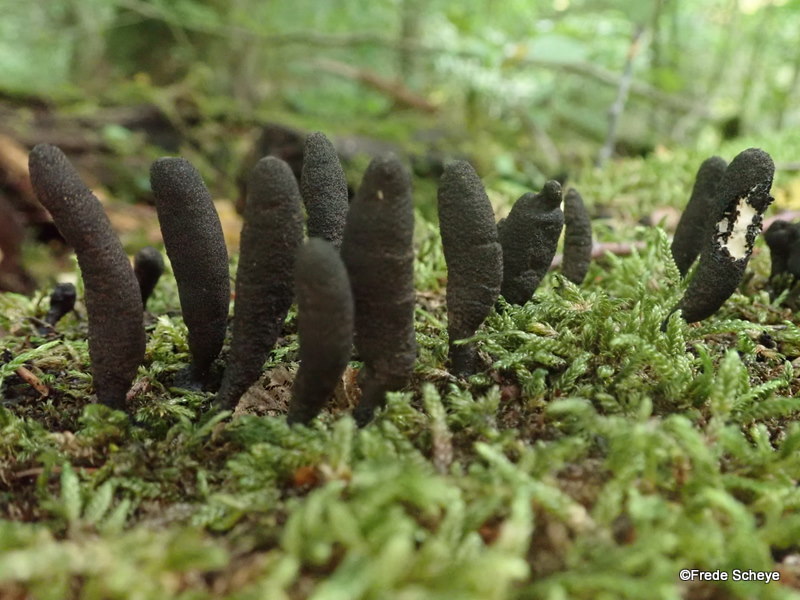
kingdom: Fungi
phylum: Ascomycota
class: Sordariomycetes
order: Xylariales
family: Xylariaceae
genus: Xylaria
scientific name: Xylaria longipes
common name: slank stødsvamp
